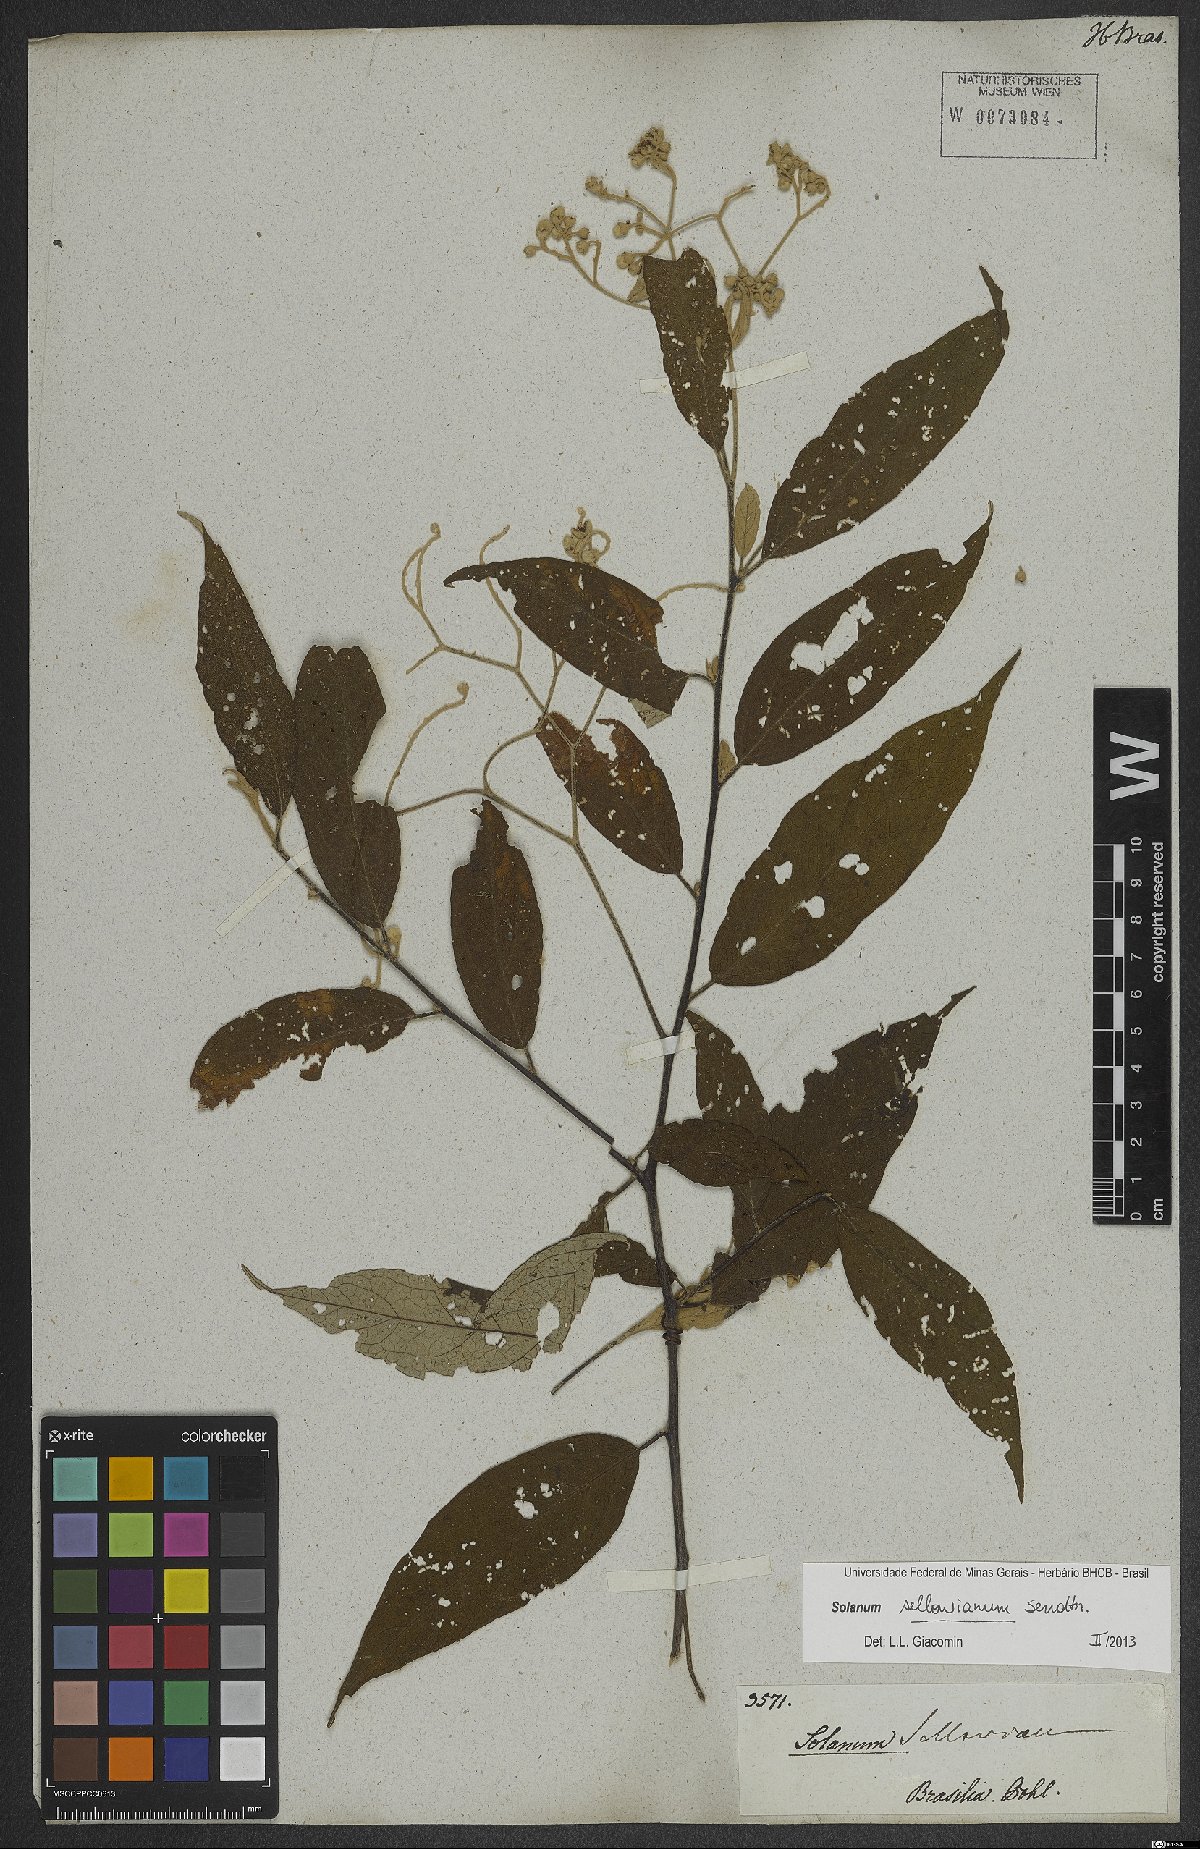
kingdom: Plantae
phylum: Tracheophyta
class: Magnoliopsida
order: Solanales
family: Solanaceae
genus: Solanum
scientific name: Solanum sellowianum
